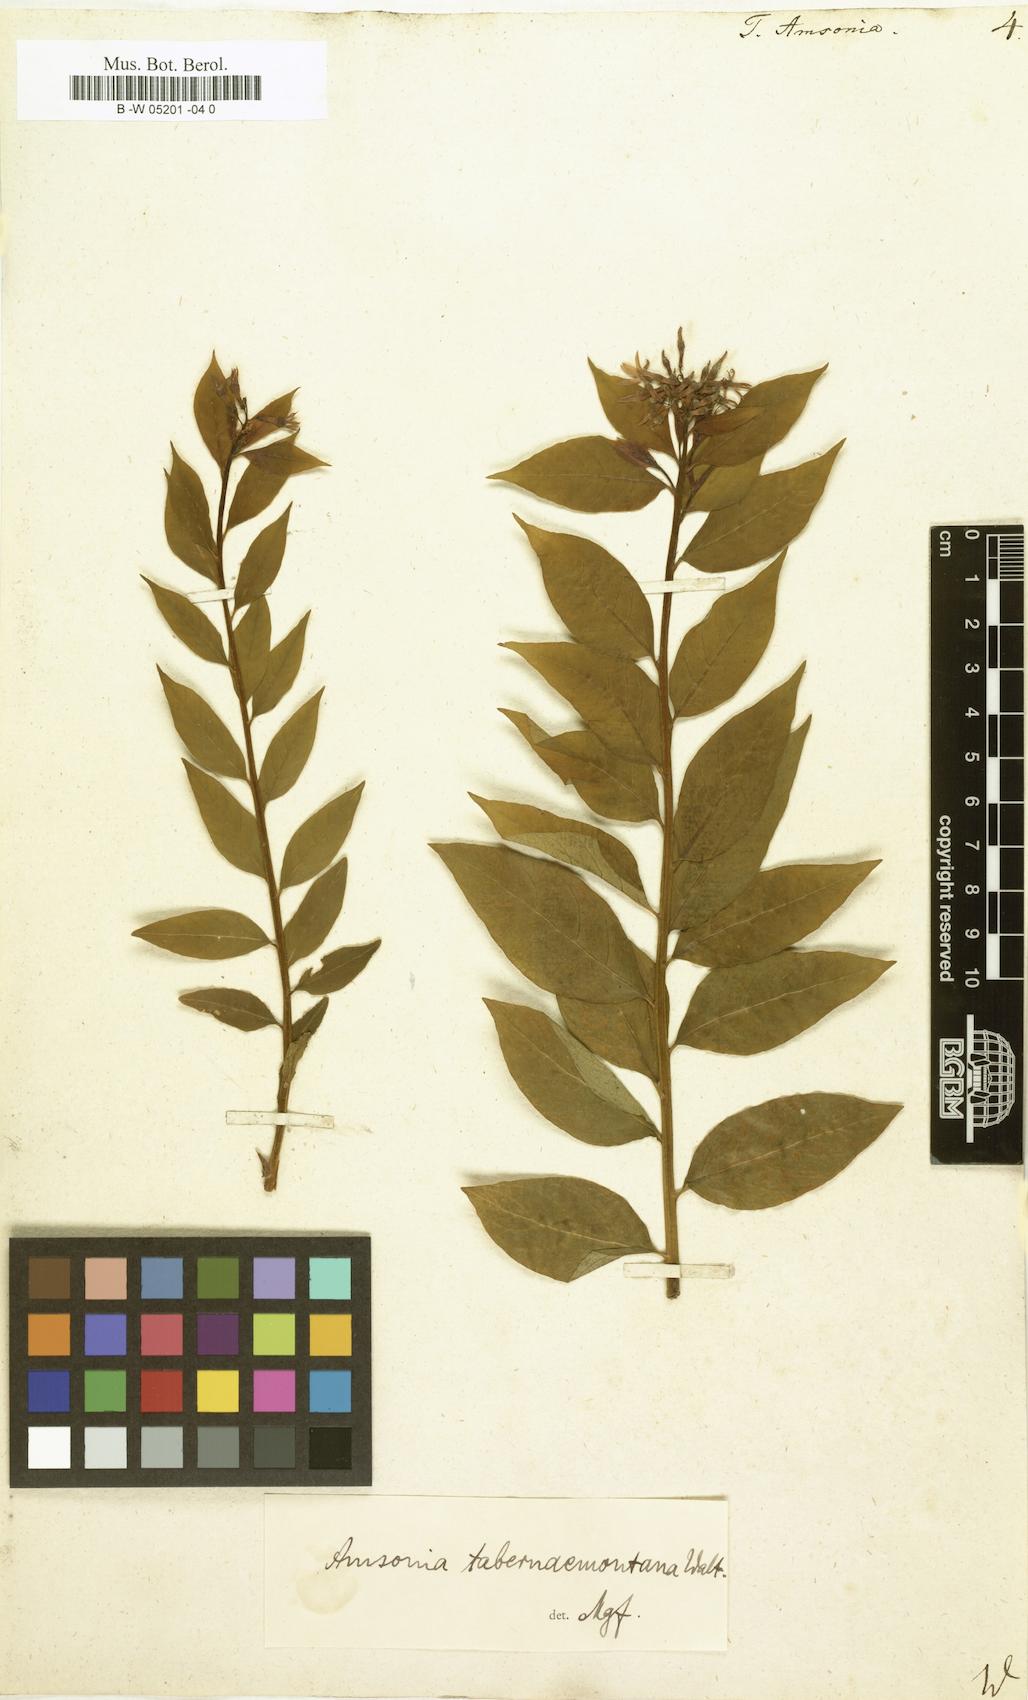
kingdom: Plantae
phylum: Tracheophyta
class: Magnoliopsida
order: Gentianales
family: Apocynaceae
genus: Amsonia
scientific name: Amsonia tabernaemontana
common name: Texas-star
